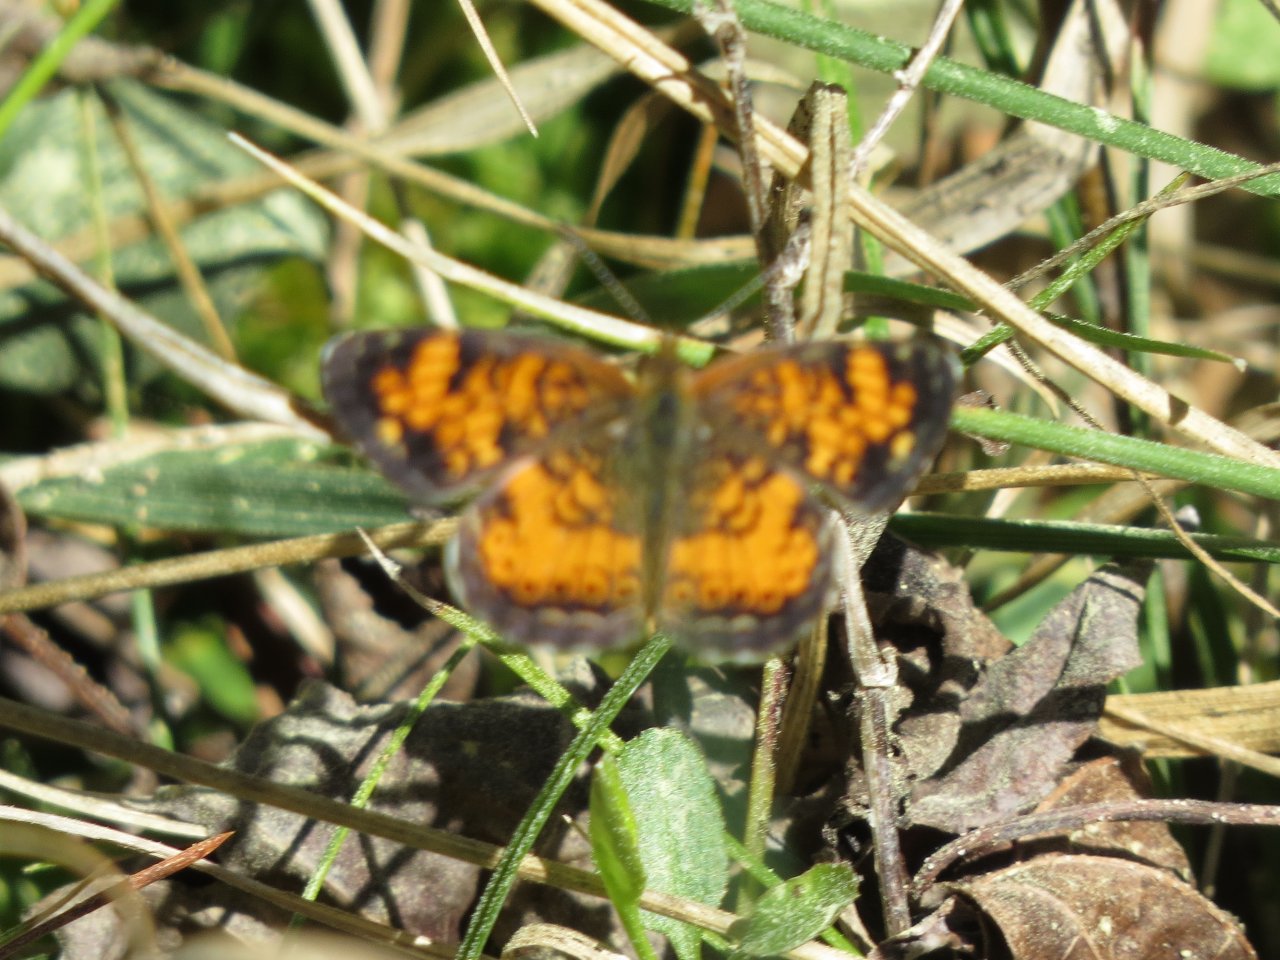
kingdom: Animalia
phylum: Arthropoda
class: Insecta
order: Lepidoptera
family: Nymphalidae
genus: Phyciodes
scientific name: Phyciodes tharos
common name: Pearl Crescent
